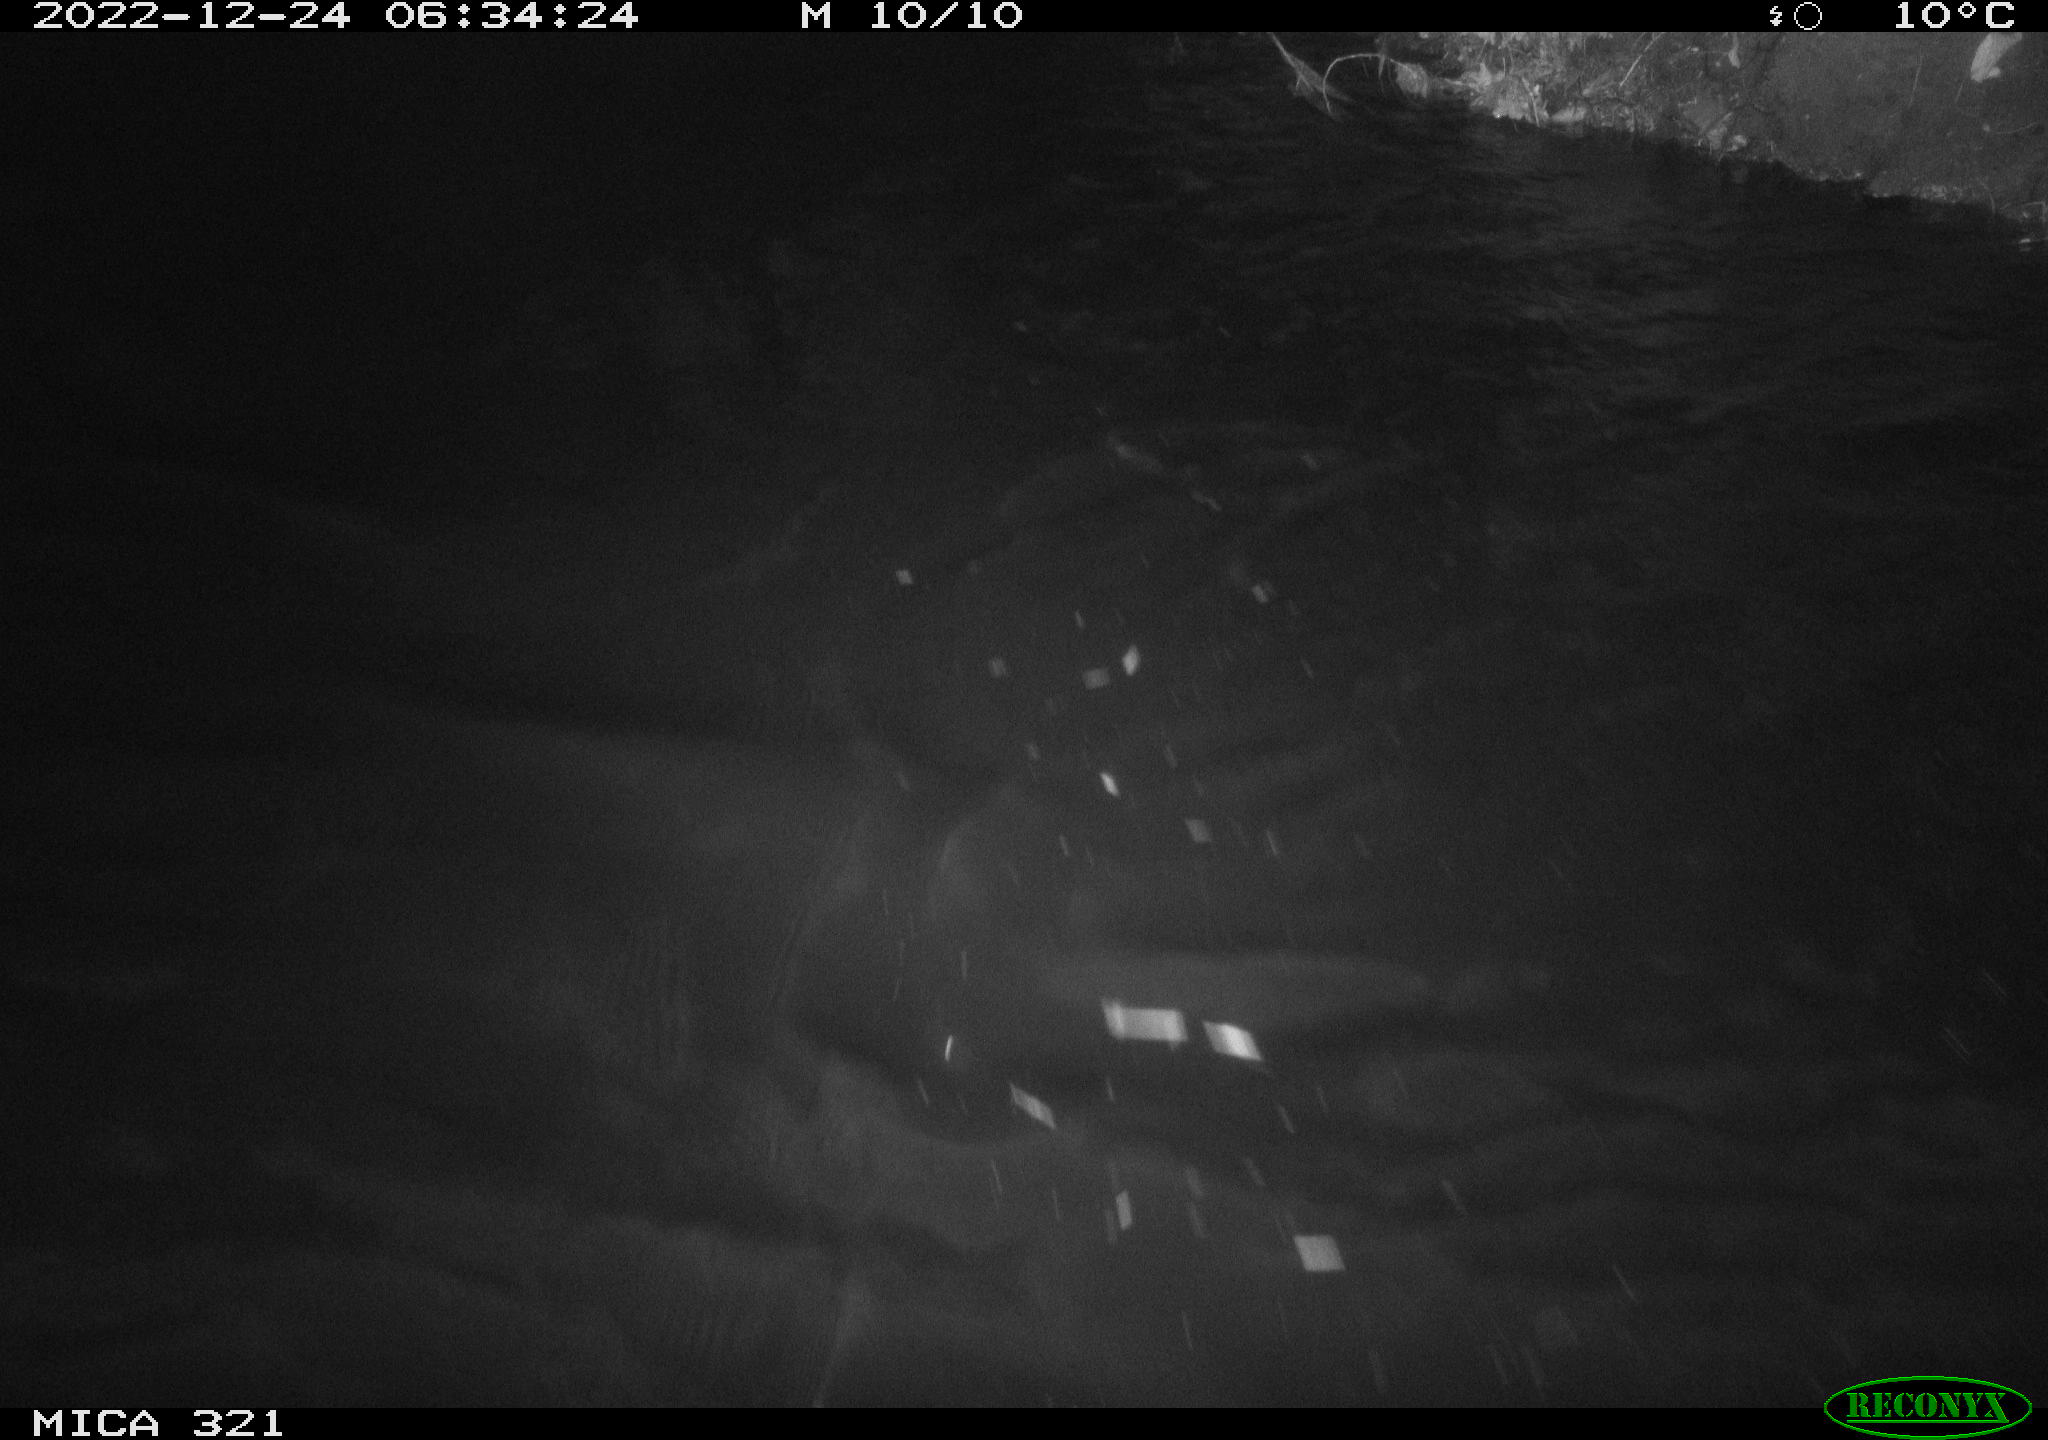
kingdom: Animalia
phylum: Chordata
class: Aves
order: Anseriformes
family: Anatidae
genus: Anas
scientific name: Anas
